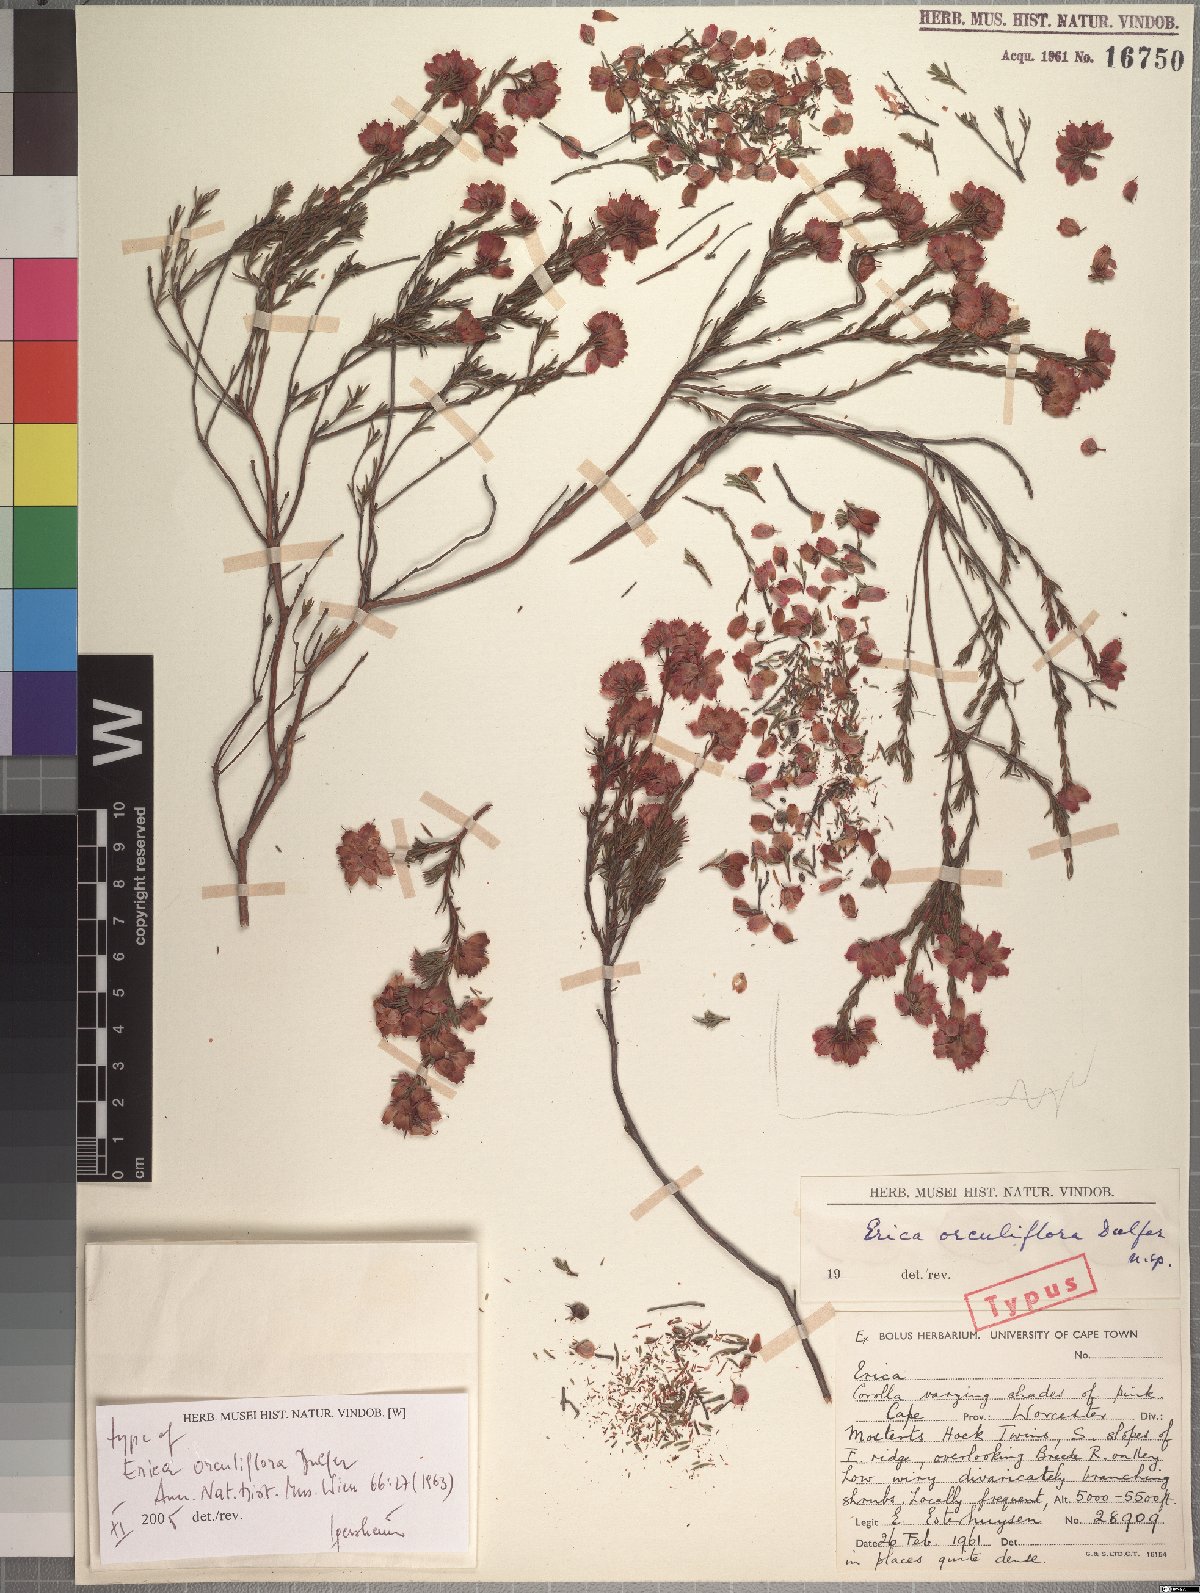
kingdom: Plantae
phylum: Tracheophyta
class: Magnoliopsida
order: Ericales
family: Ericaceae
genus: Erica
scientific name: Erica orculiflora
